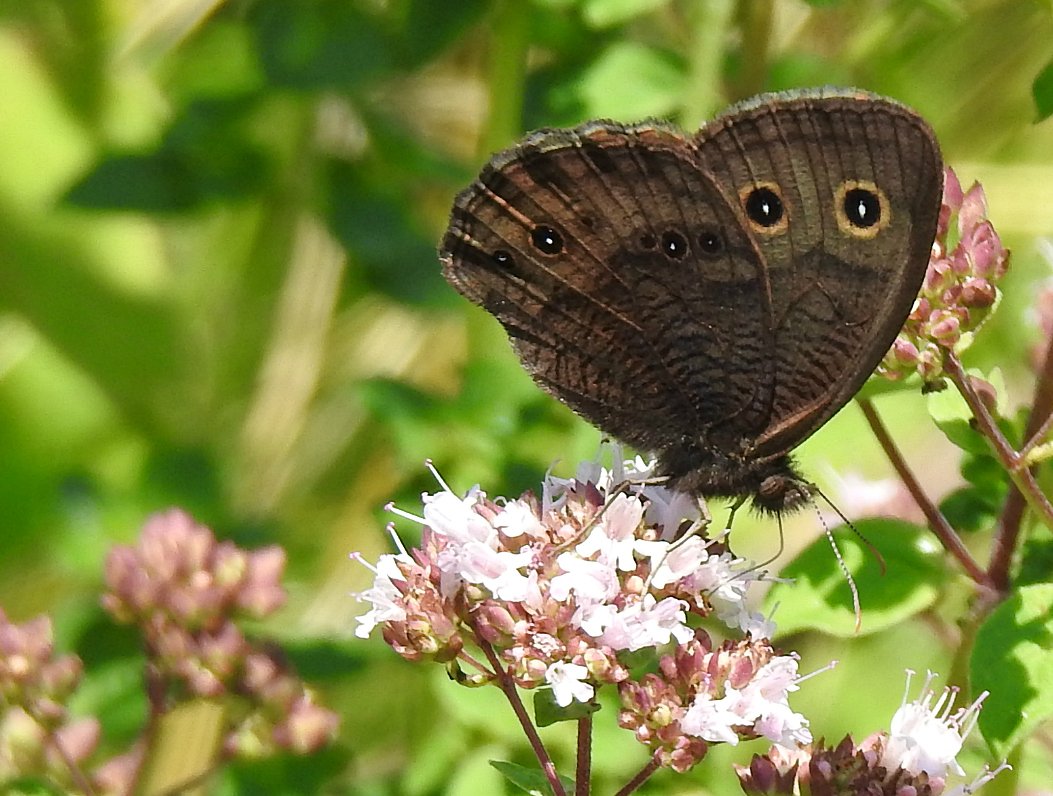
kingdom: Animalia
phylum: Arthropoda
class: Insecta
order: Lepidoptera
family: Nymphalidae
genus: Cercyonis
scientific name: Cercyonis pegala
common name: Common Wood-Nymph
